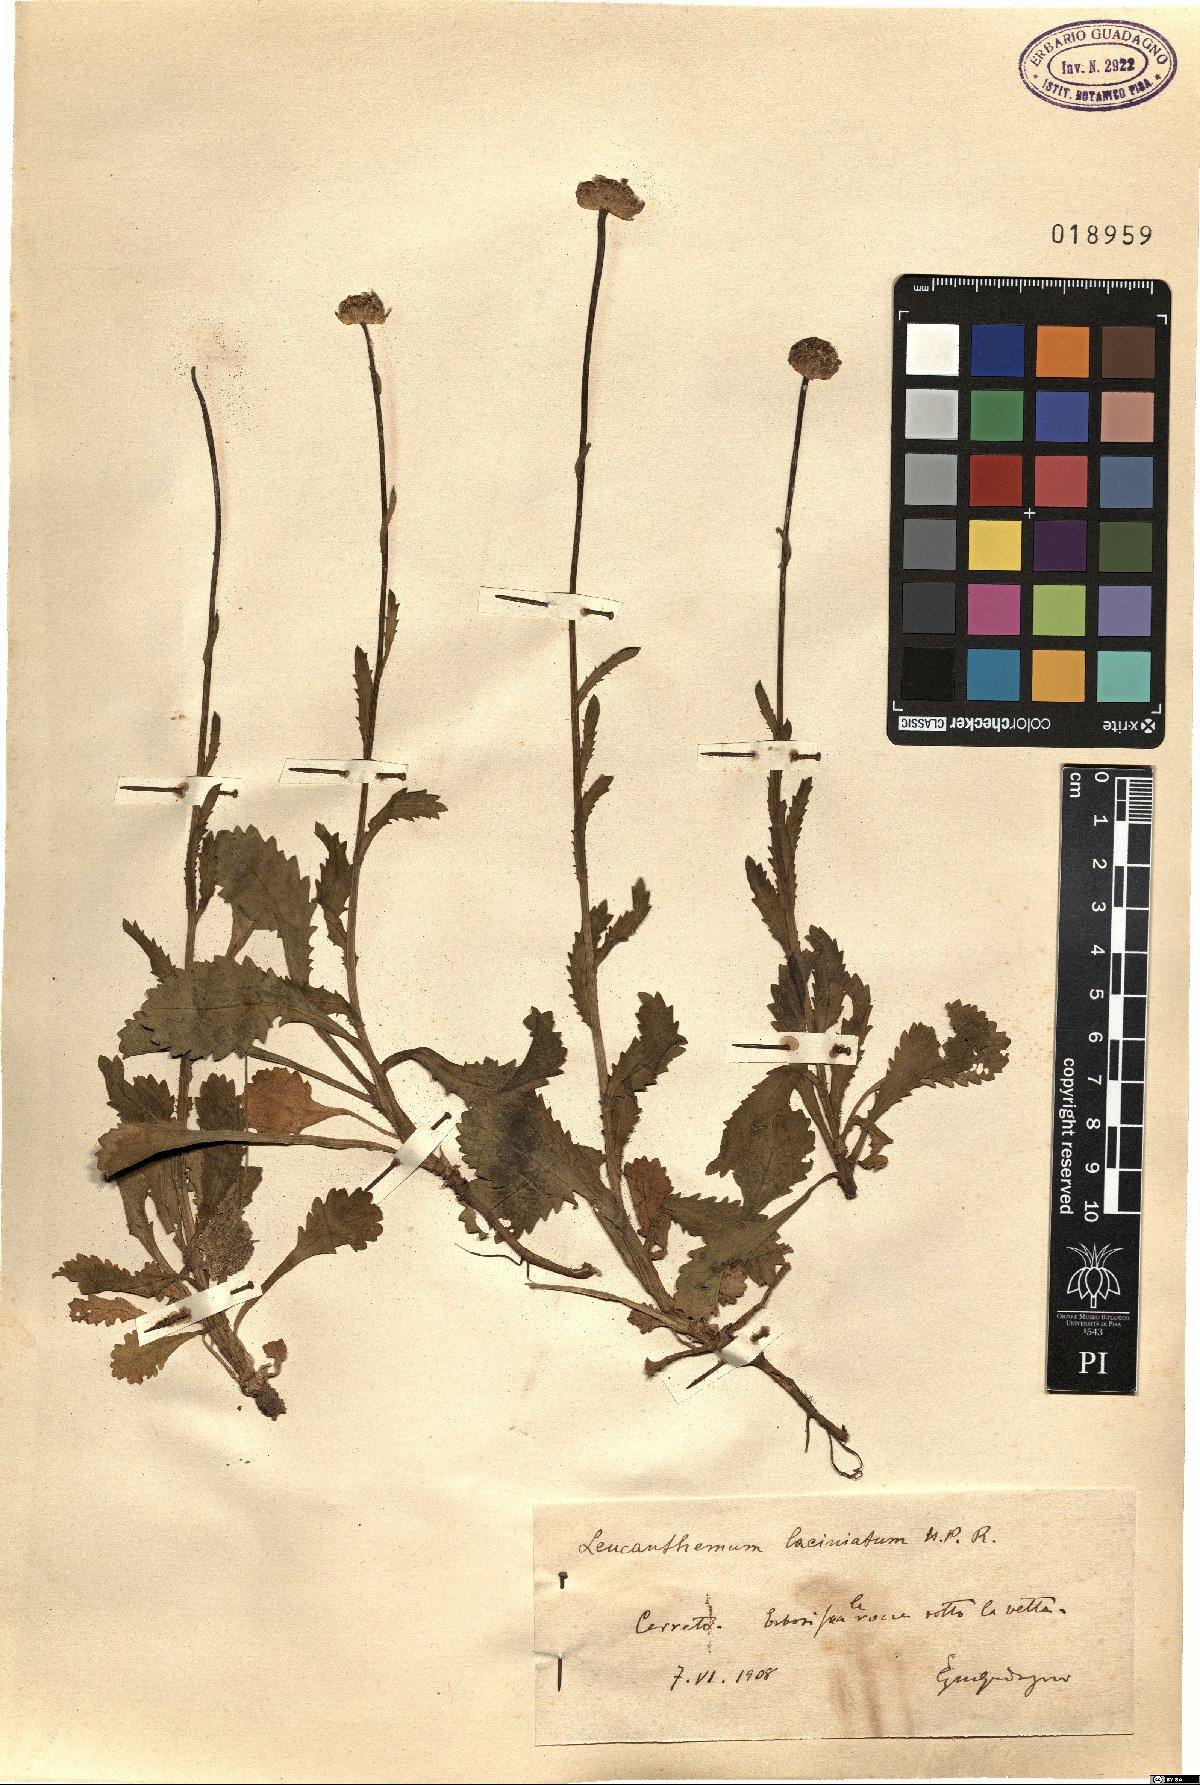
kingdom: Plantae
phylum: Tracheophyta
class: Magnoliopsida
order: Asterales
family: Asteraceae
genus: Leucanthemum
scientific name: Leucanthemum laciniatum
